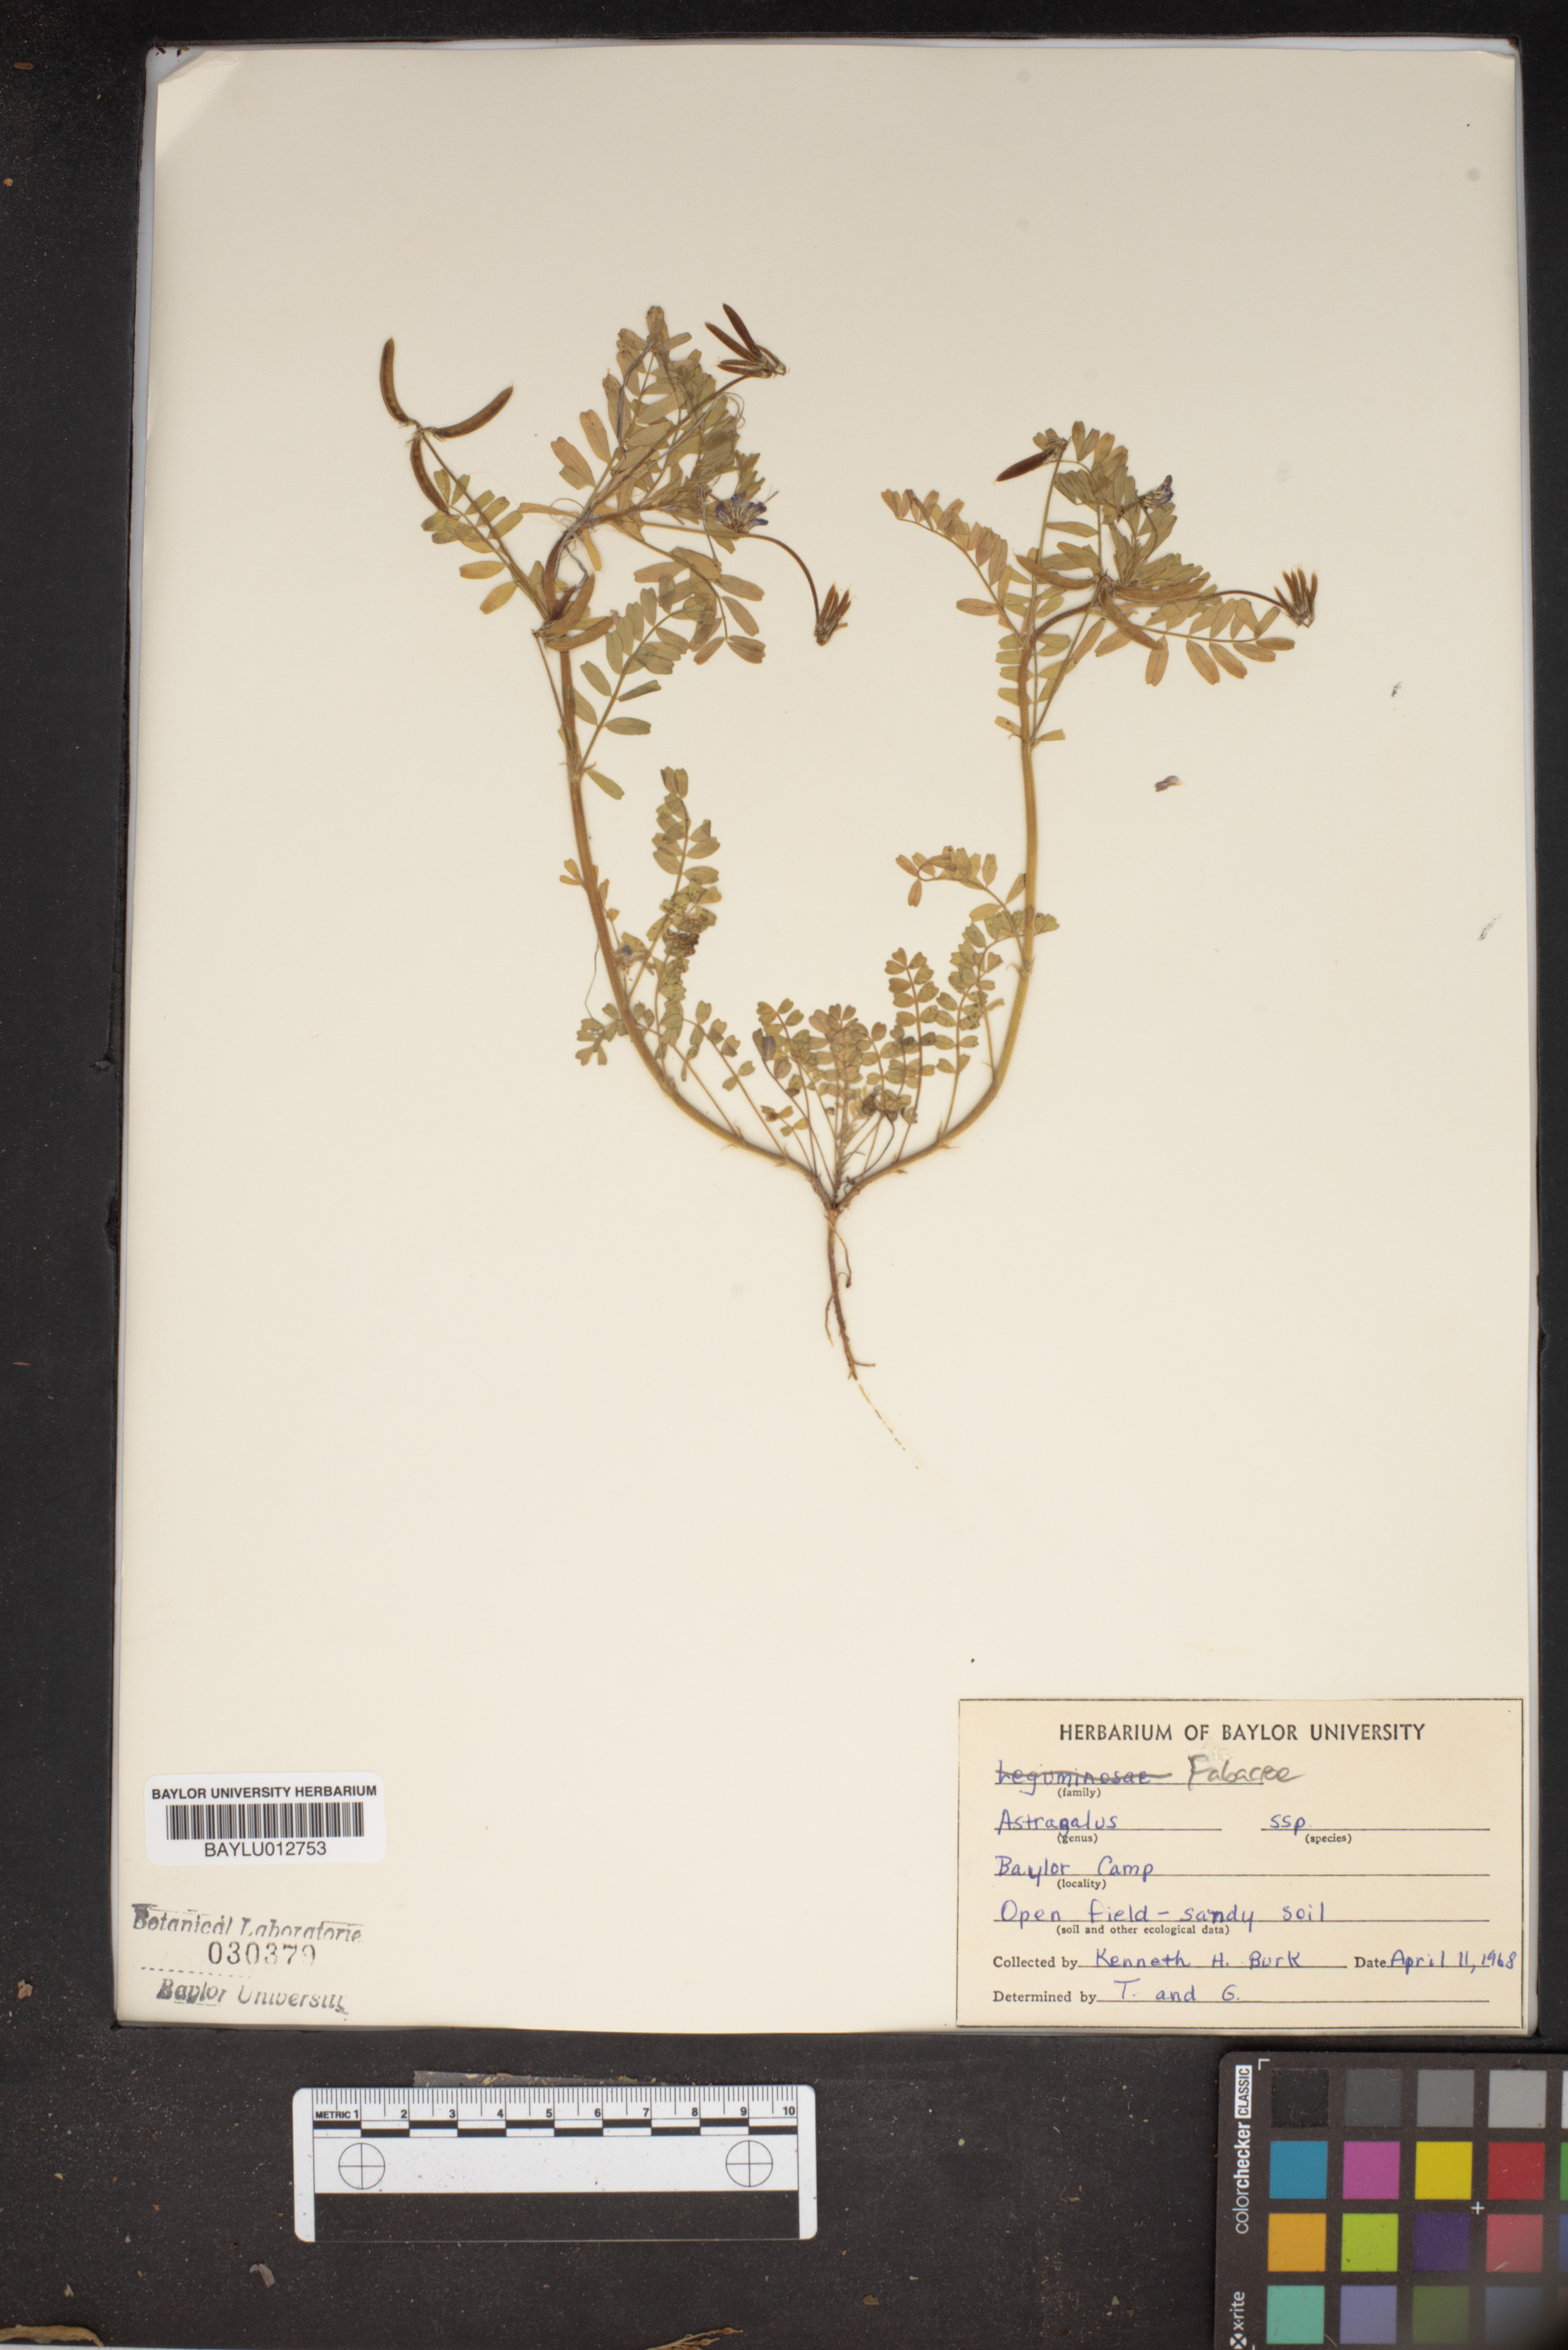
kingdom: Plantae
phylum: Tracheophyta
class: Magnoliopsida
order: Fabales
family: Fabaceae
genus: Astragalus
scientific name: Astragalus
